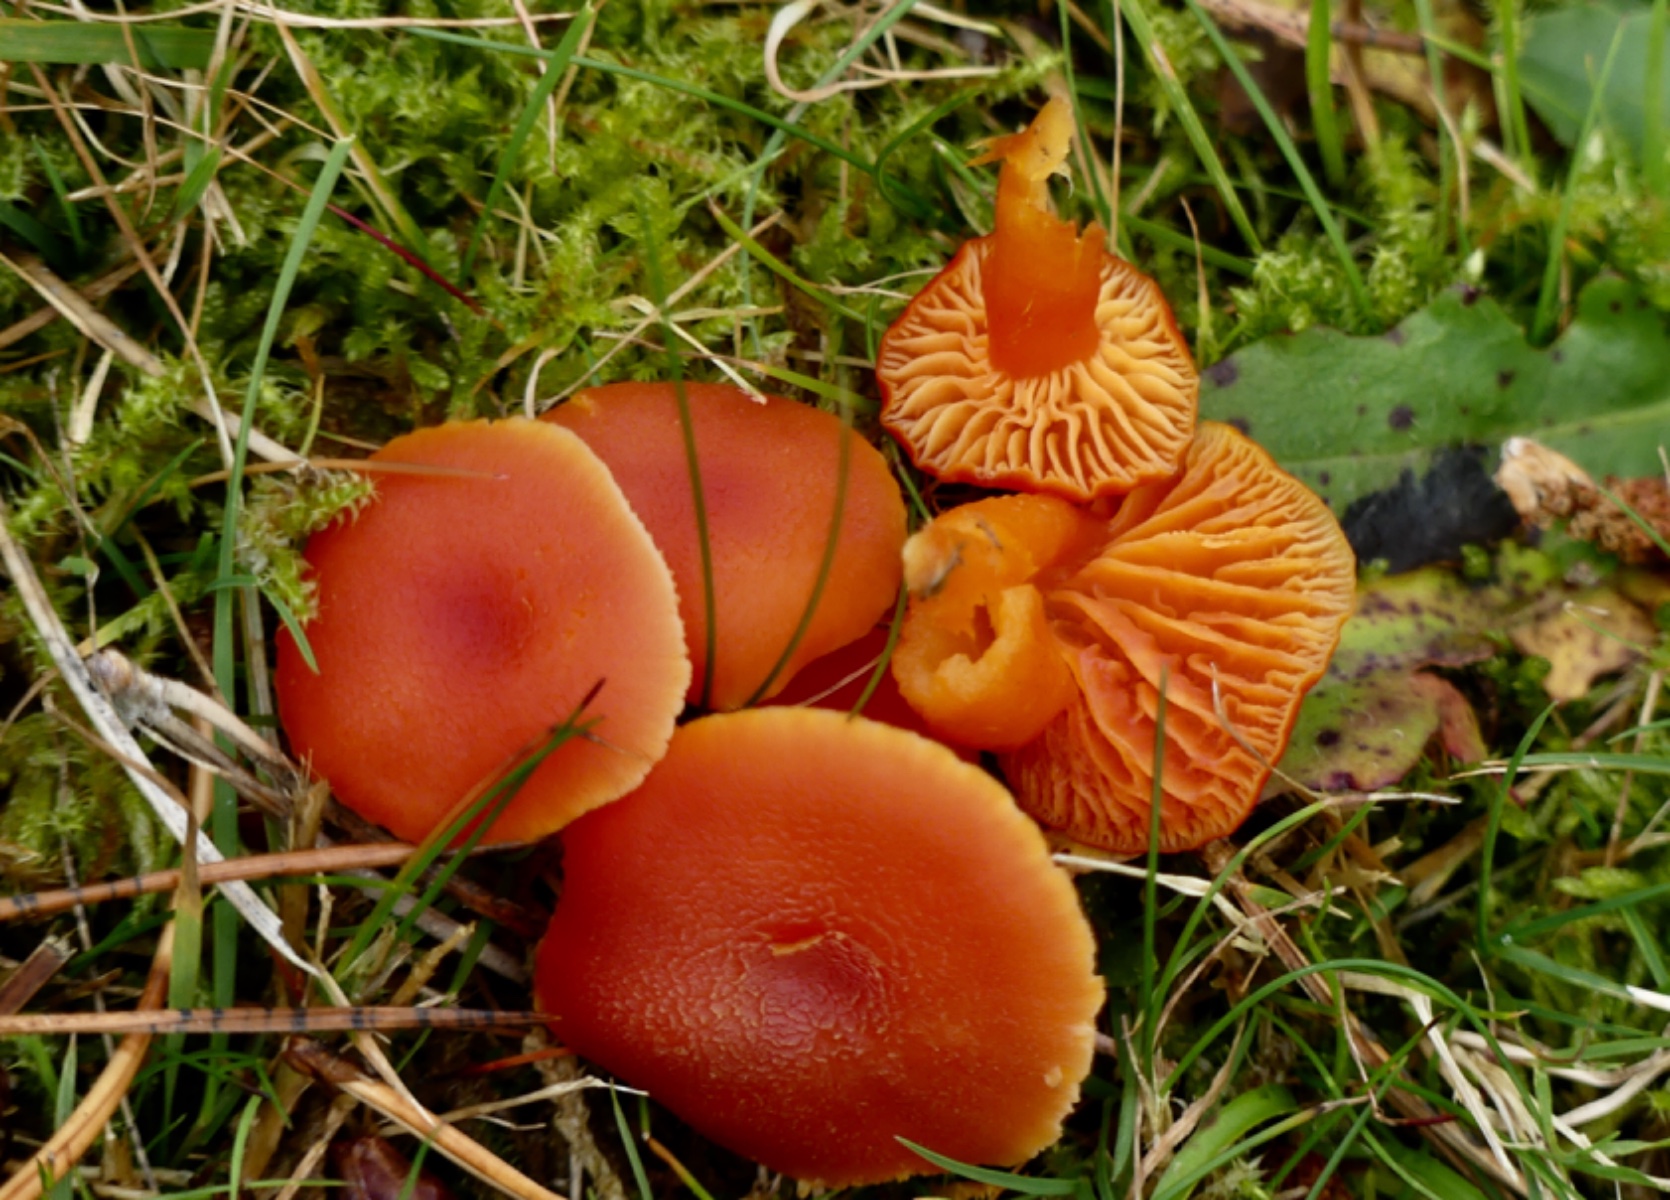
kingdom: Fungi
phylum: Basidiomycota
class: Agaricomycetes
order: Agaricales
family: Hygrophoraceae
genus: Hygrocybe
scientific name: Hygrocybe miniata
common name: mønje-vokshat
